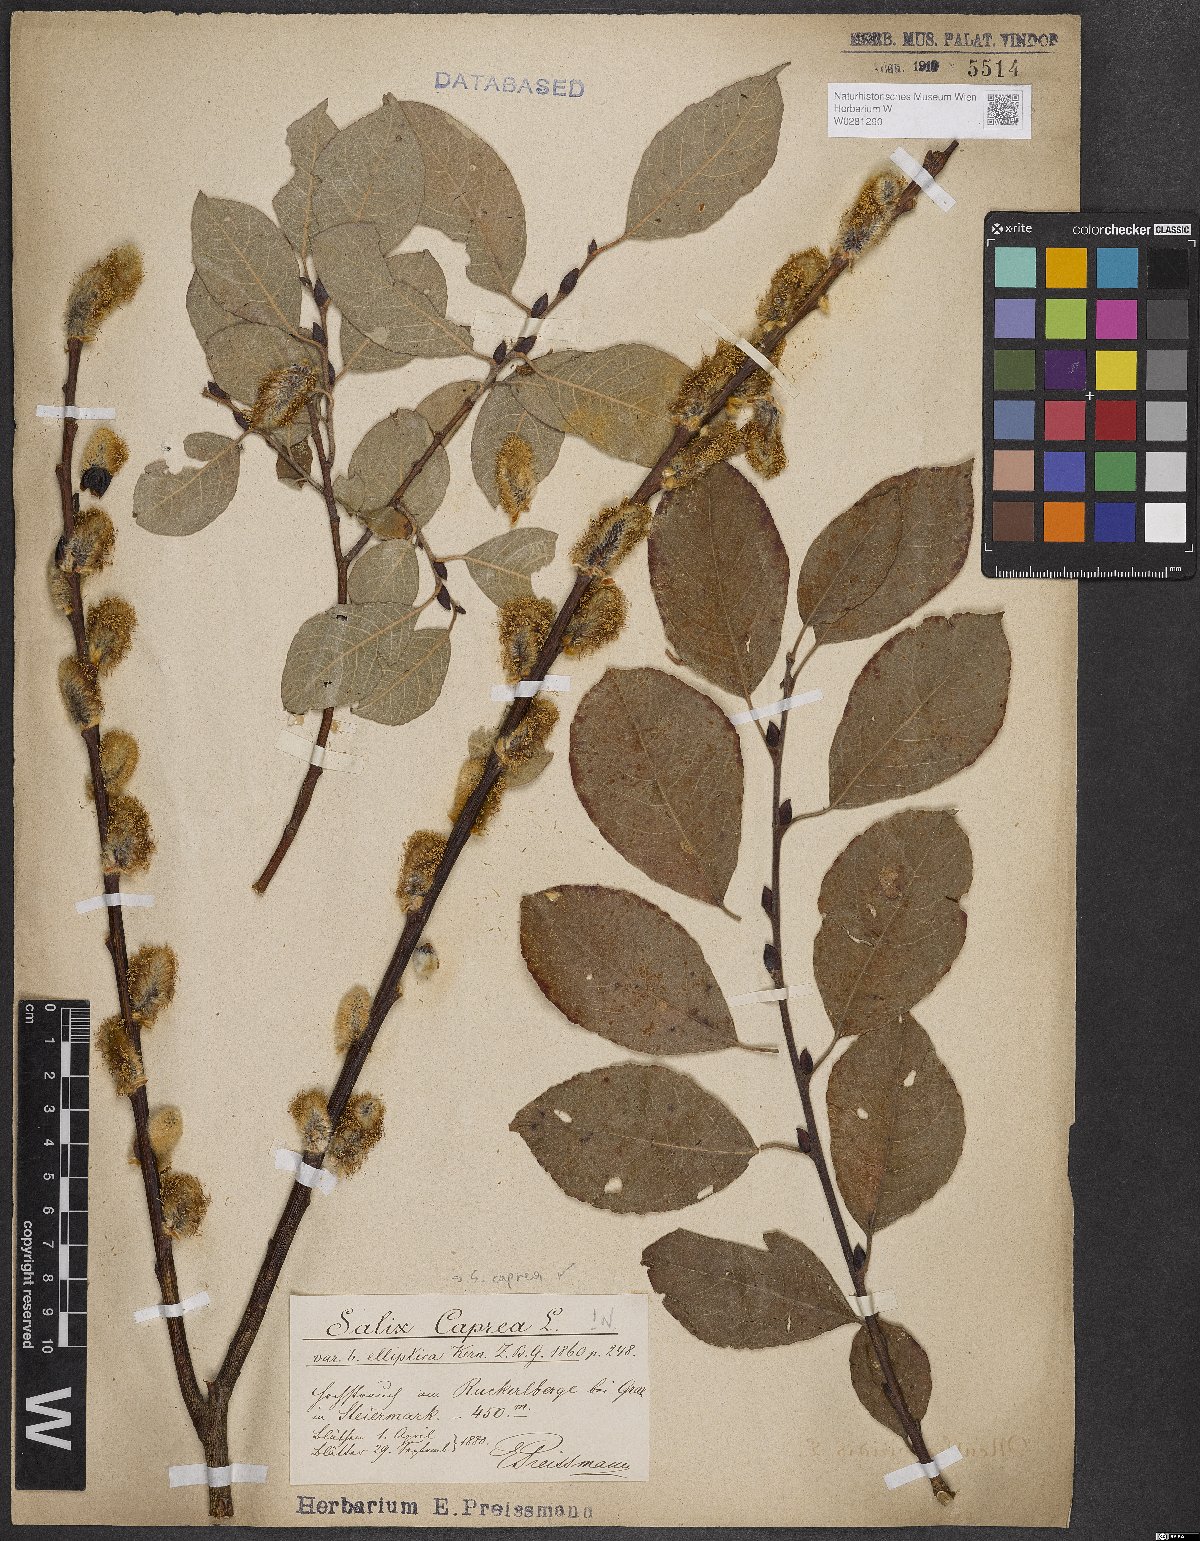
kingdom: Plantae
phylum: Tracheophyta
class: Magnoliopsida
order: Malpighiales
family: Salicaceae
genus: Salix
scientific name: Salix caprea
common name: Goat willow
